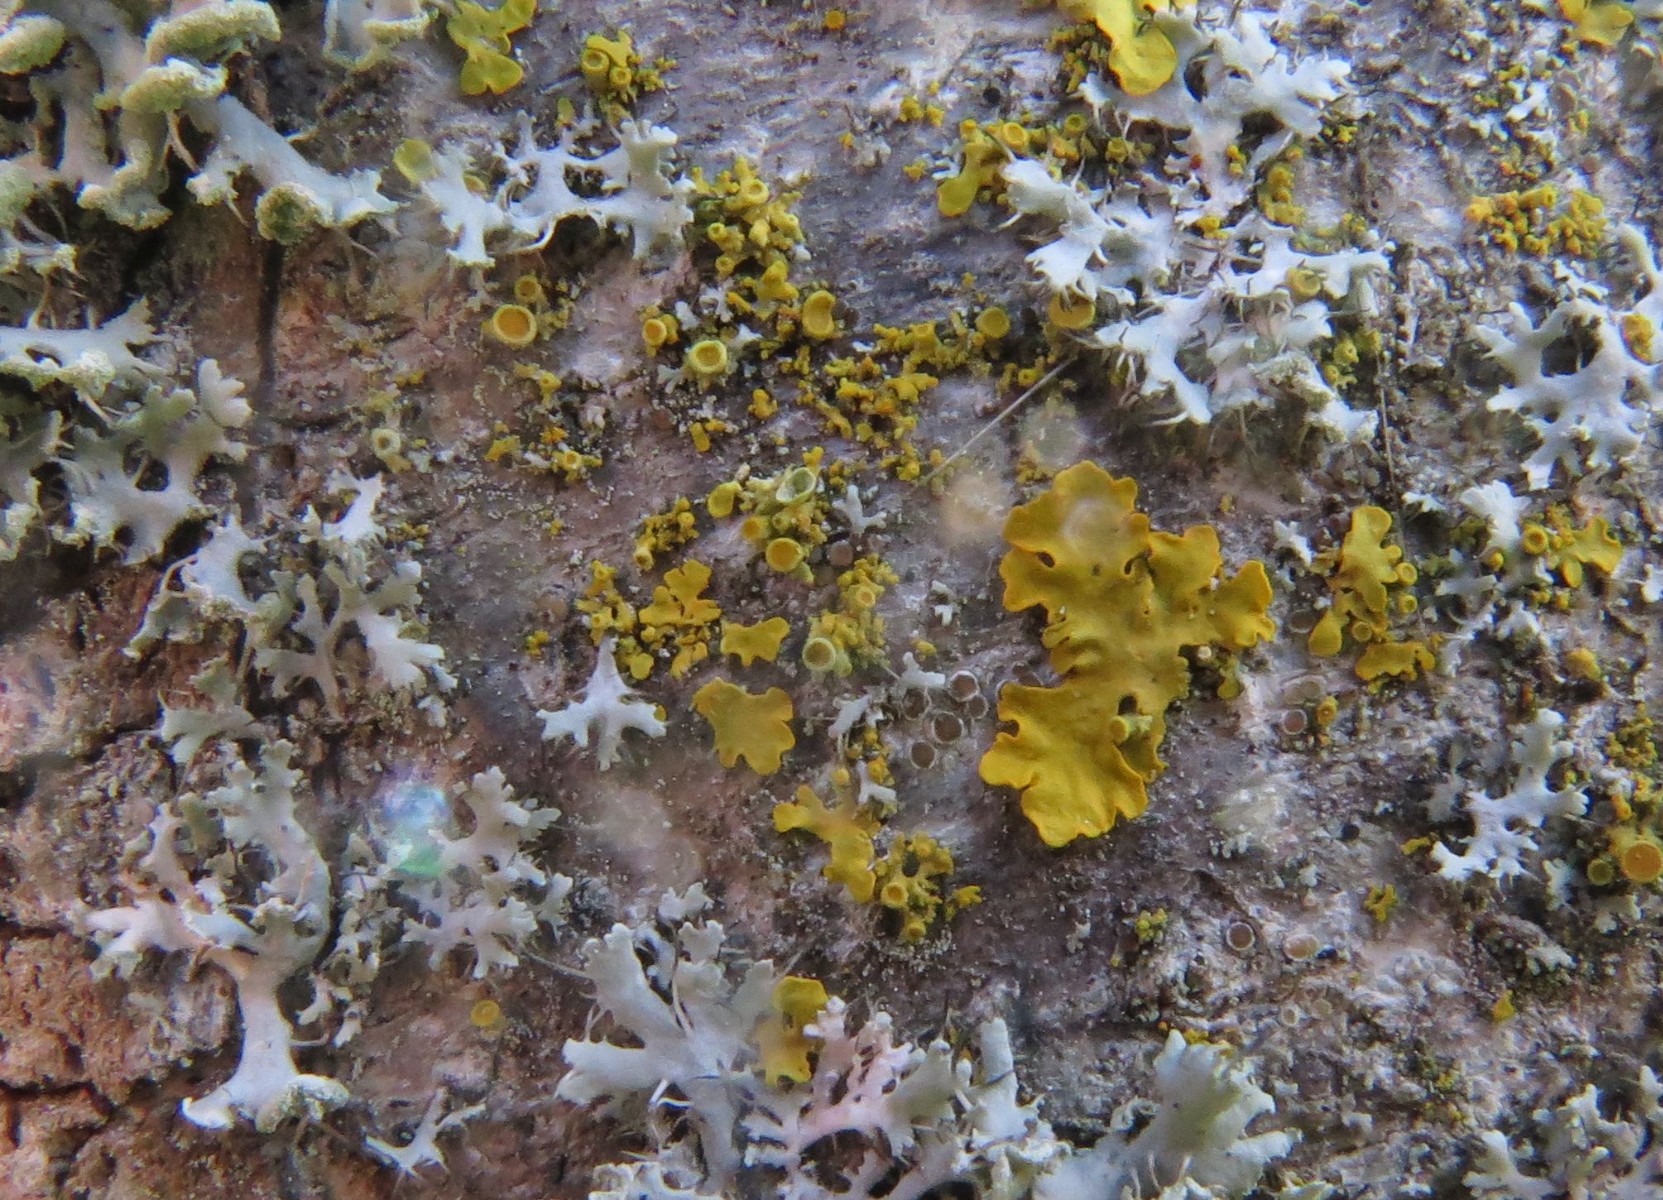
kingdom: Fungi
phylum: Ascomycota
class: Lecanoromycetes
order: Teloschistales
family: Teloschistaceae
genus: Polycauliona
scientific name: Polycauliona polycarpa
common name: mangefrugtet orangelav
